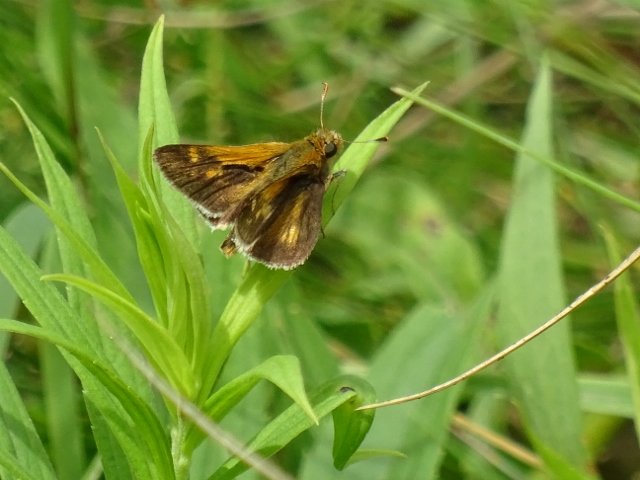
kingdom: Animalia
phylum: Arthropoda
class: Insecta
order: Lepidoptera
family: Hesperiidae
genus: Polites
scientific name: Polites coras
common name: Peck's Skipper
